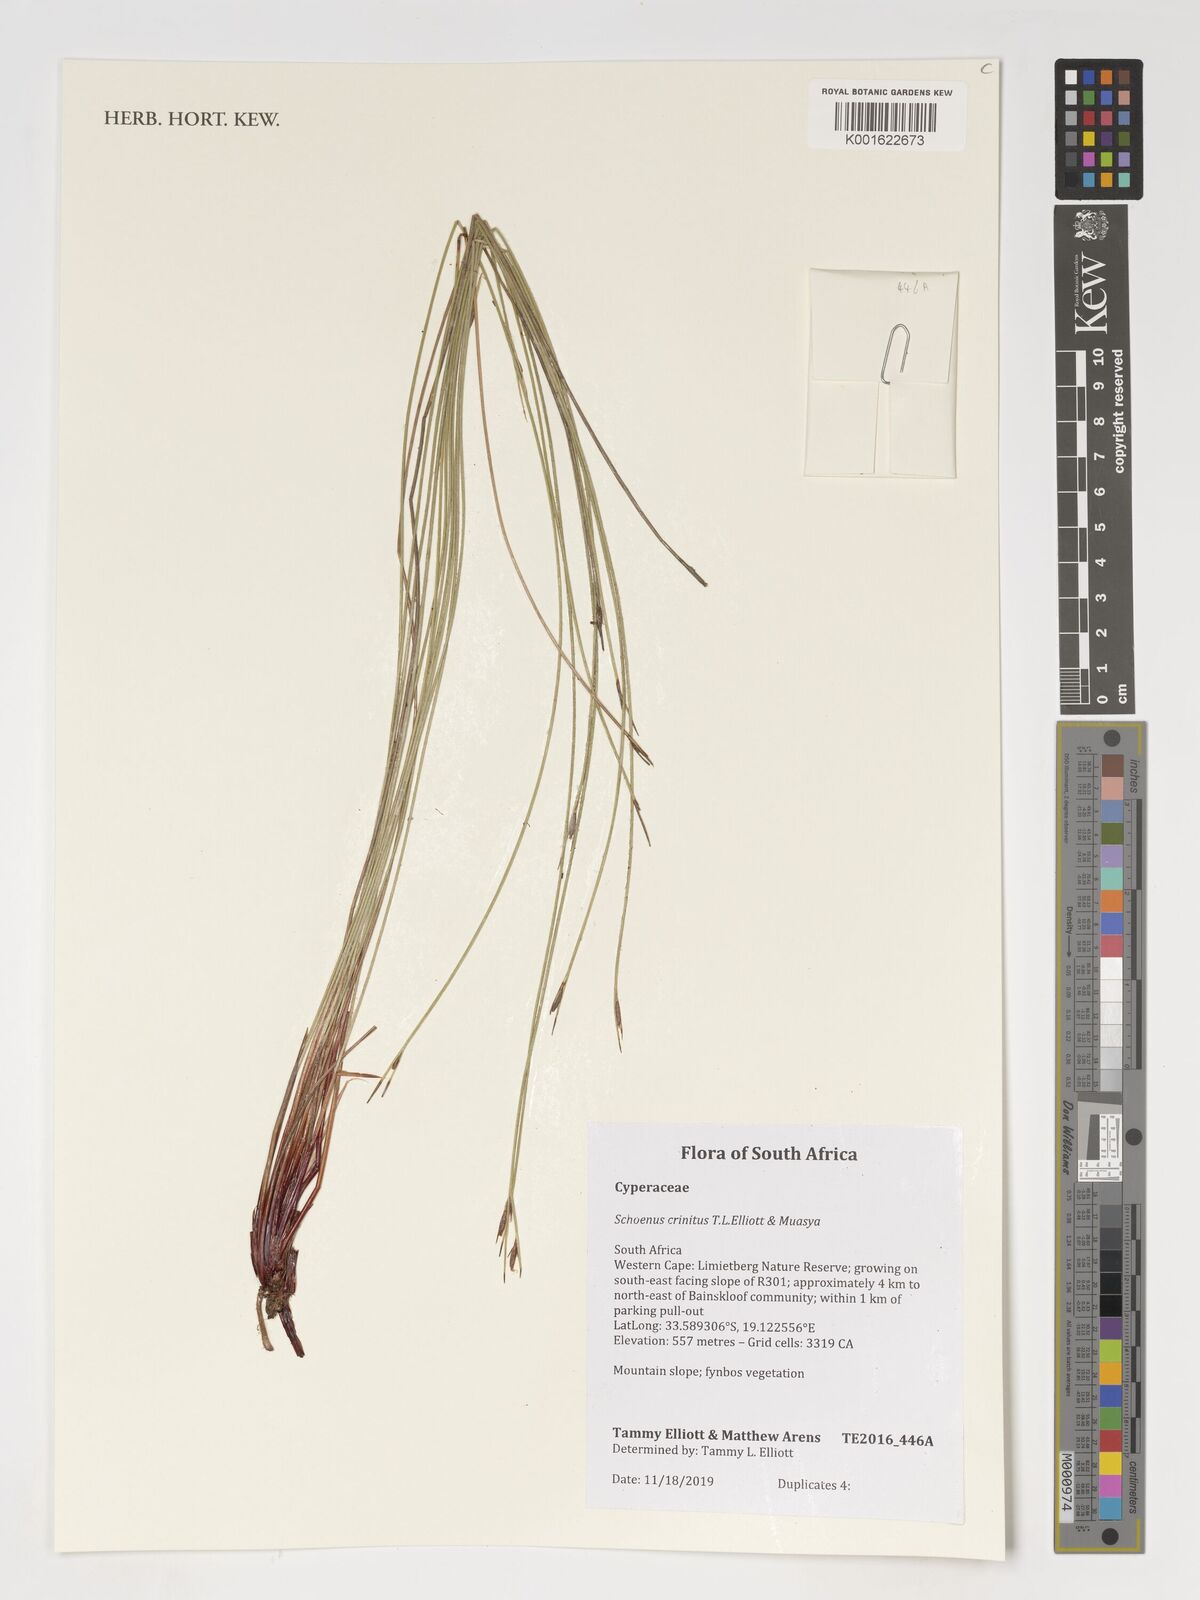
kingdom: Plantae
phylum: Tracheophyta
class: Liliopsida
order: Poales
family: Cyperaceae
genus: Schoenus
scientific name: Schoenus
